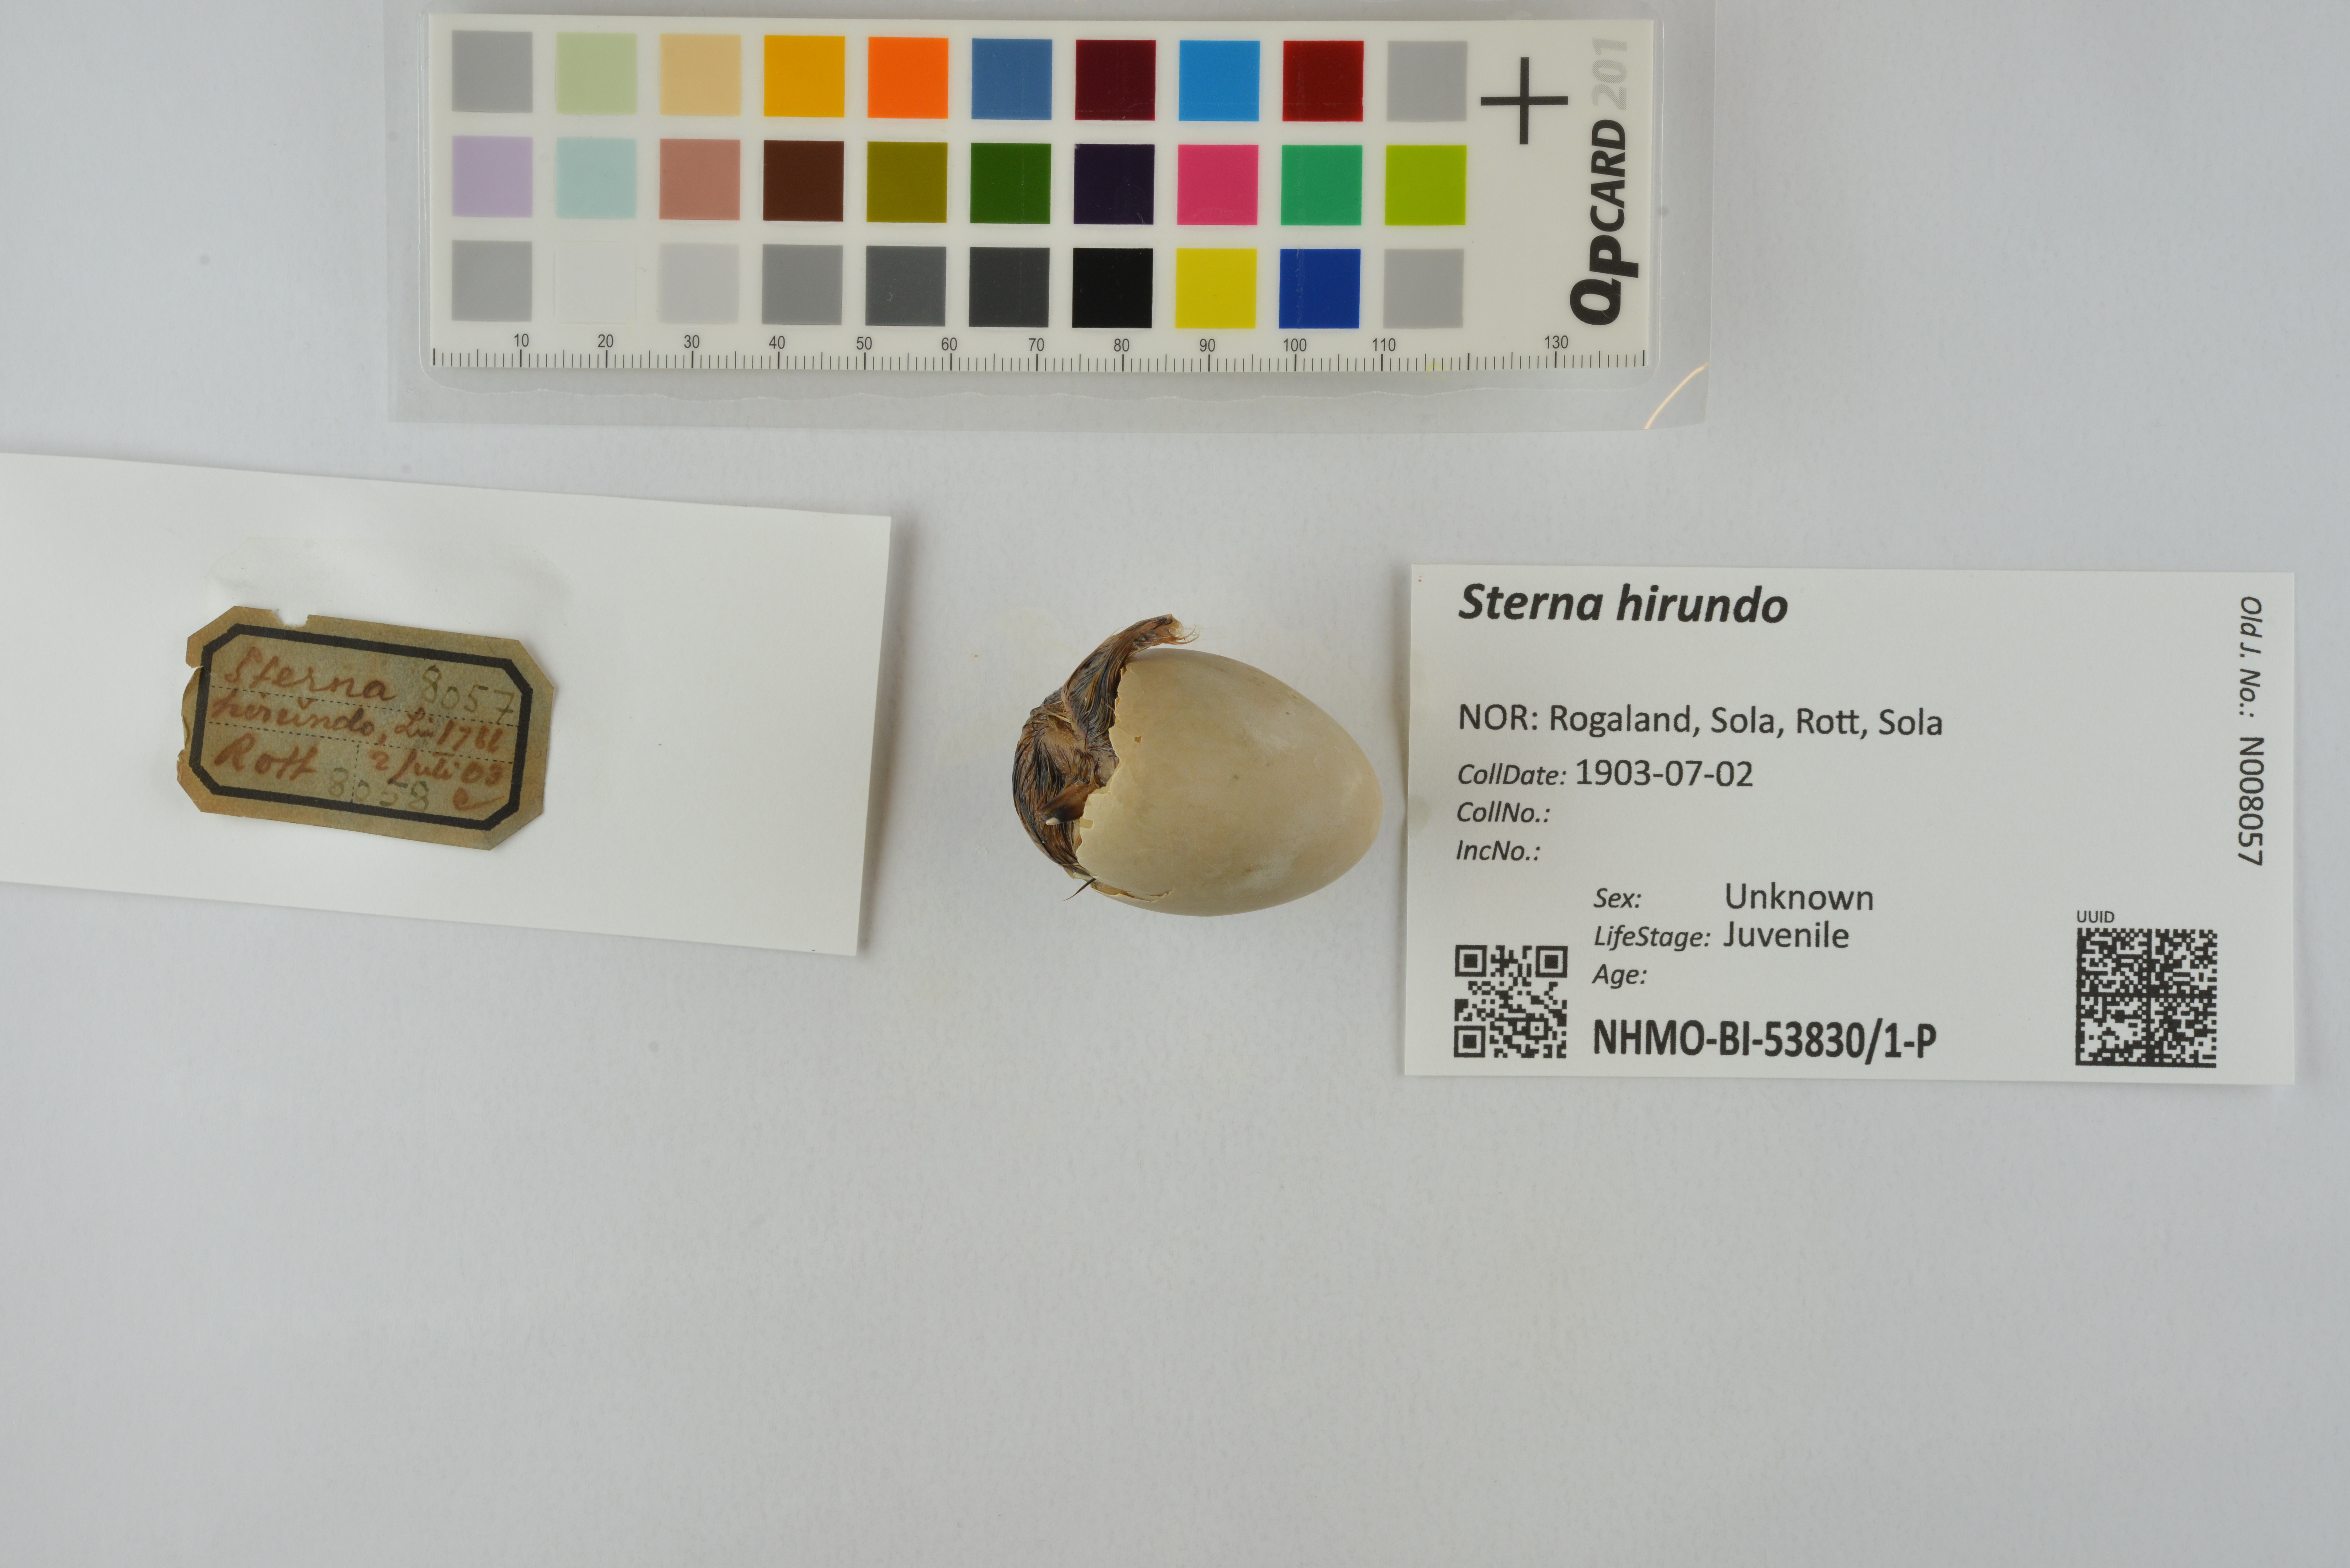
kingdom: Animalia
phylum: Chordata
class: Aves
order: Charadriiformes
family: Laridae
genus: Sterna
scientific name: Sterna hirundo
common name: Common tern
